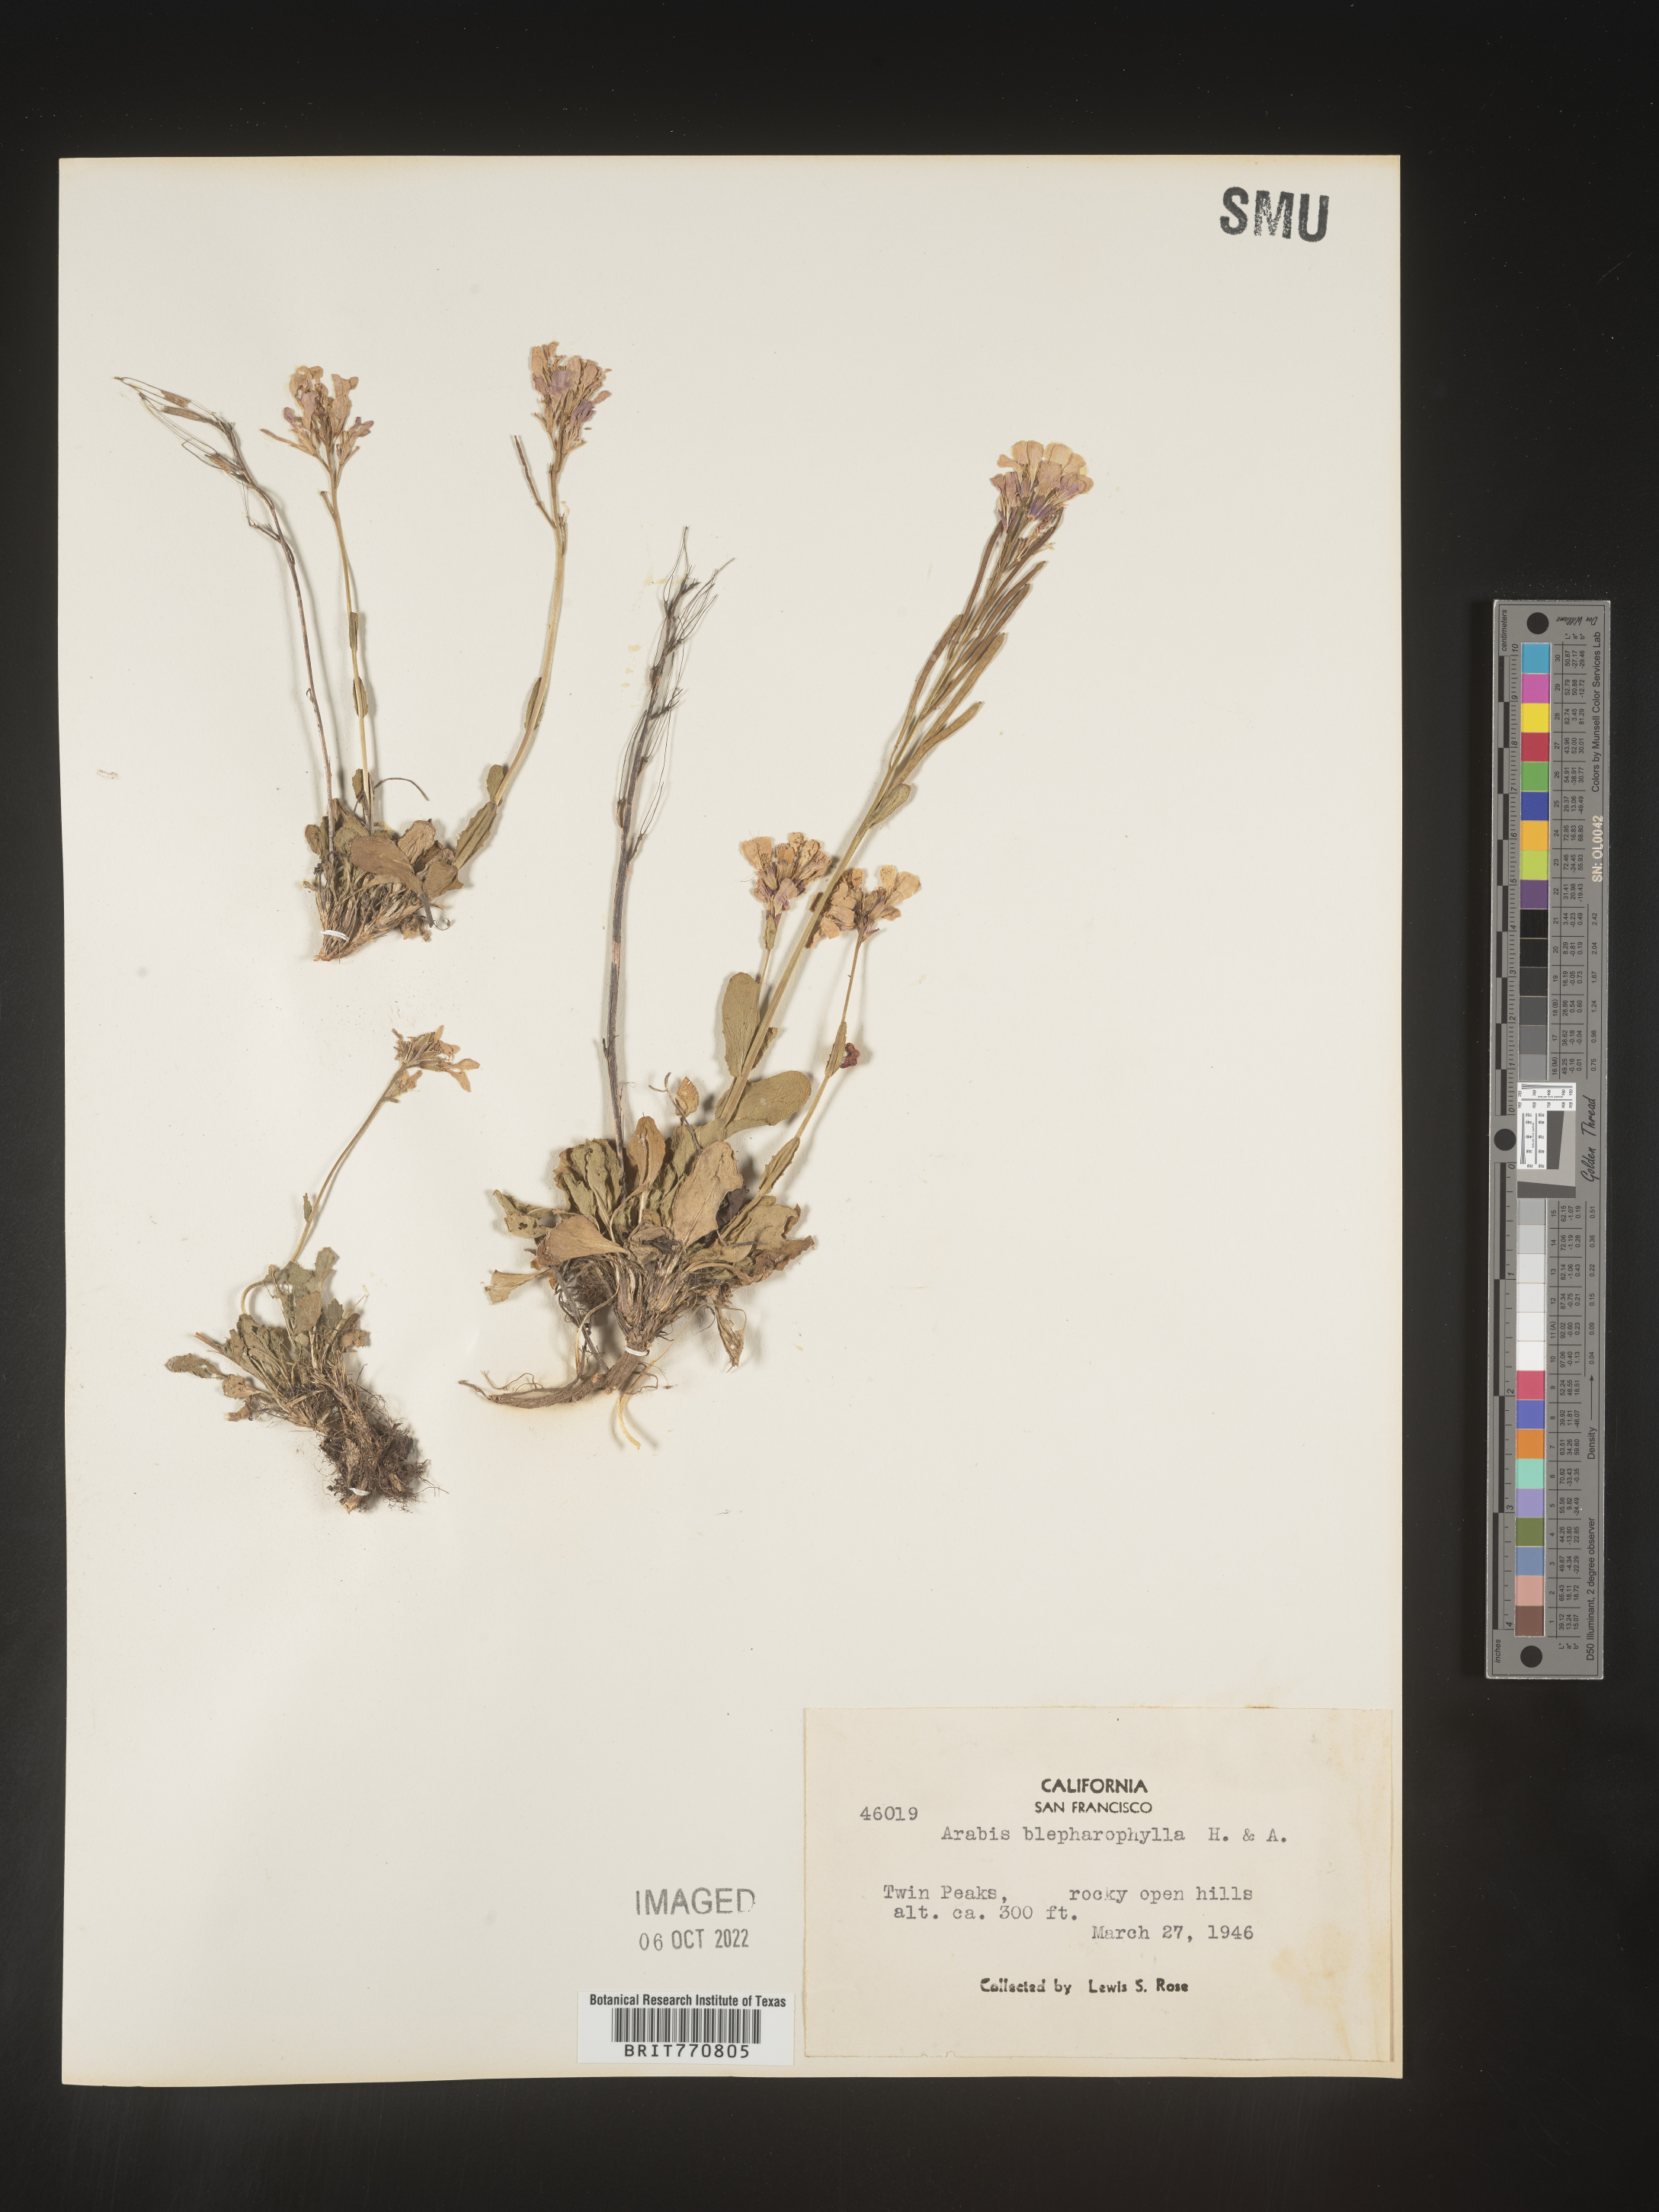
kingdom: Plantae
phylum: Tracheophyta
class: Magnoliopsida
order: Brassicales
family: Brassicaceae
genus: Arabis
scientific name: Arabis
